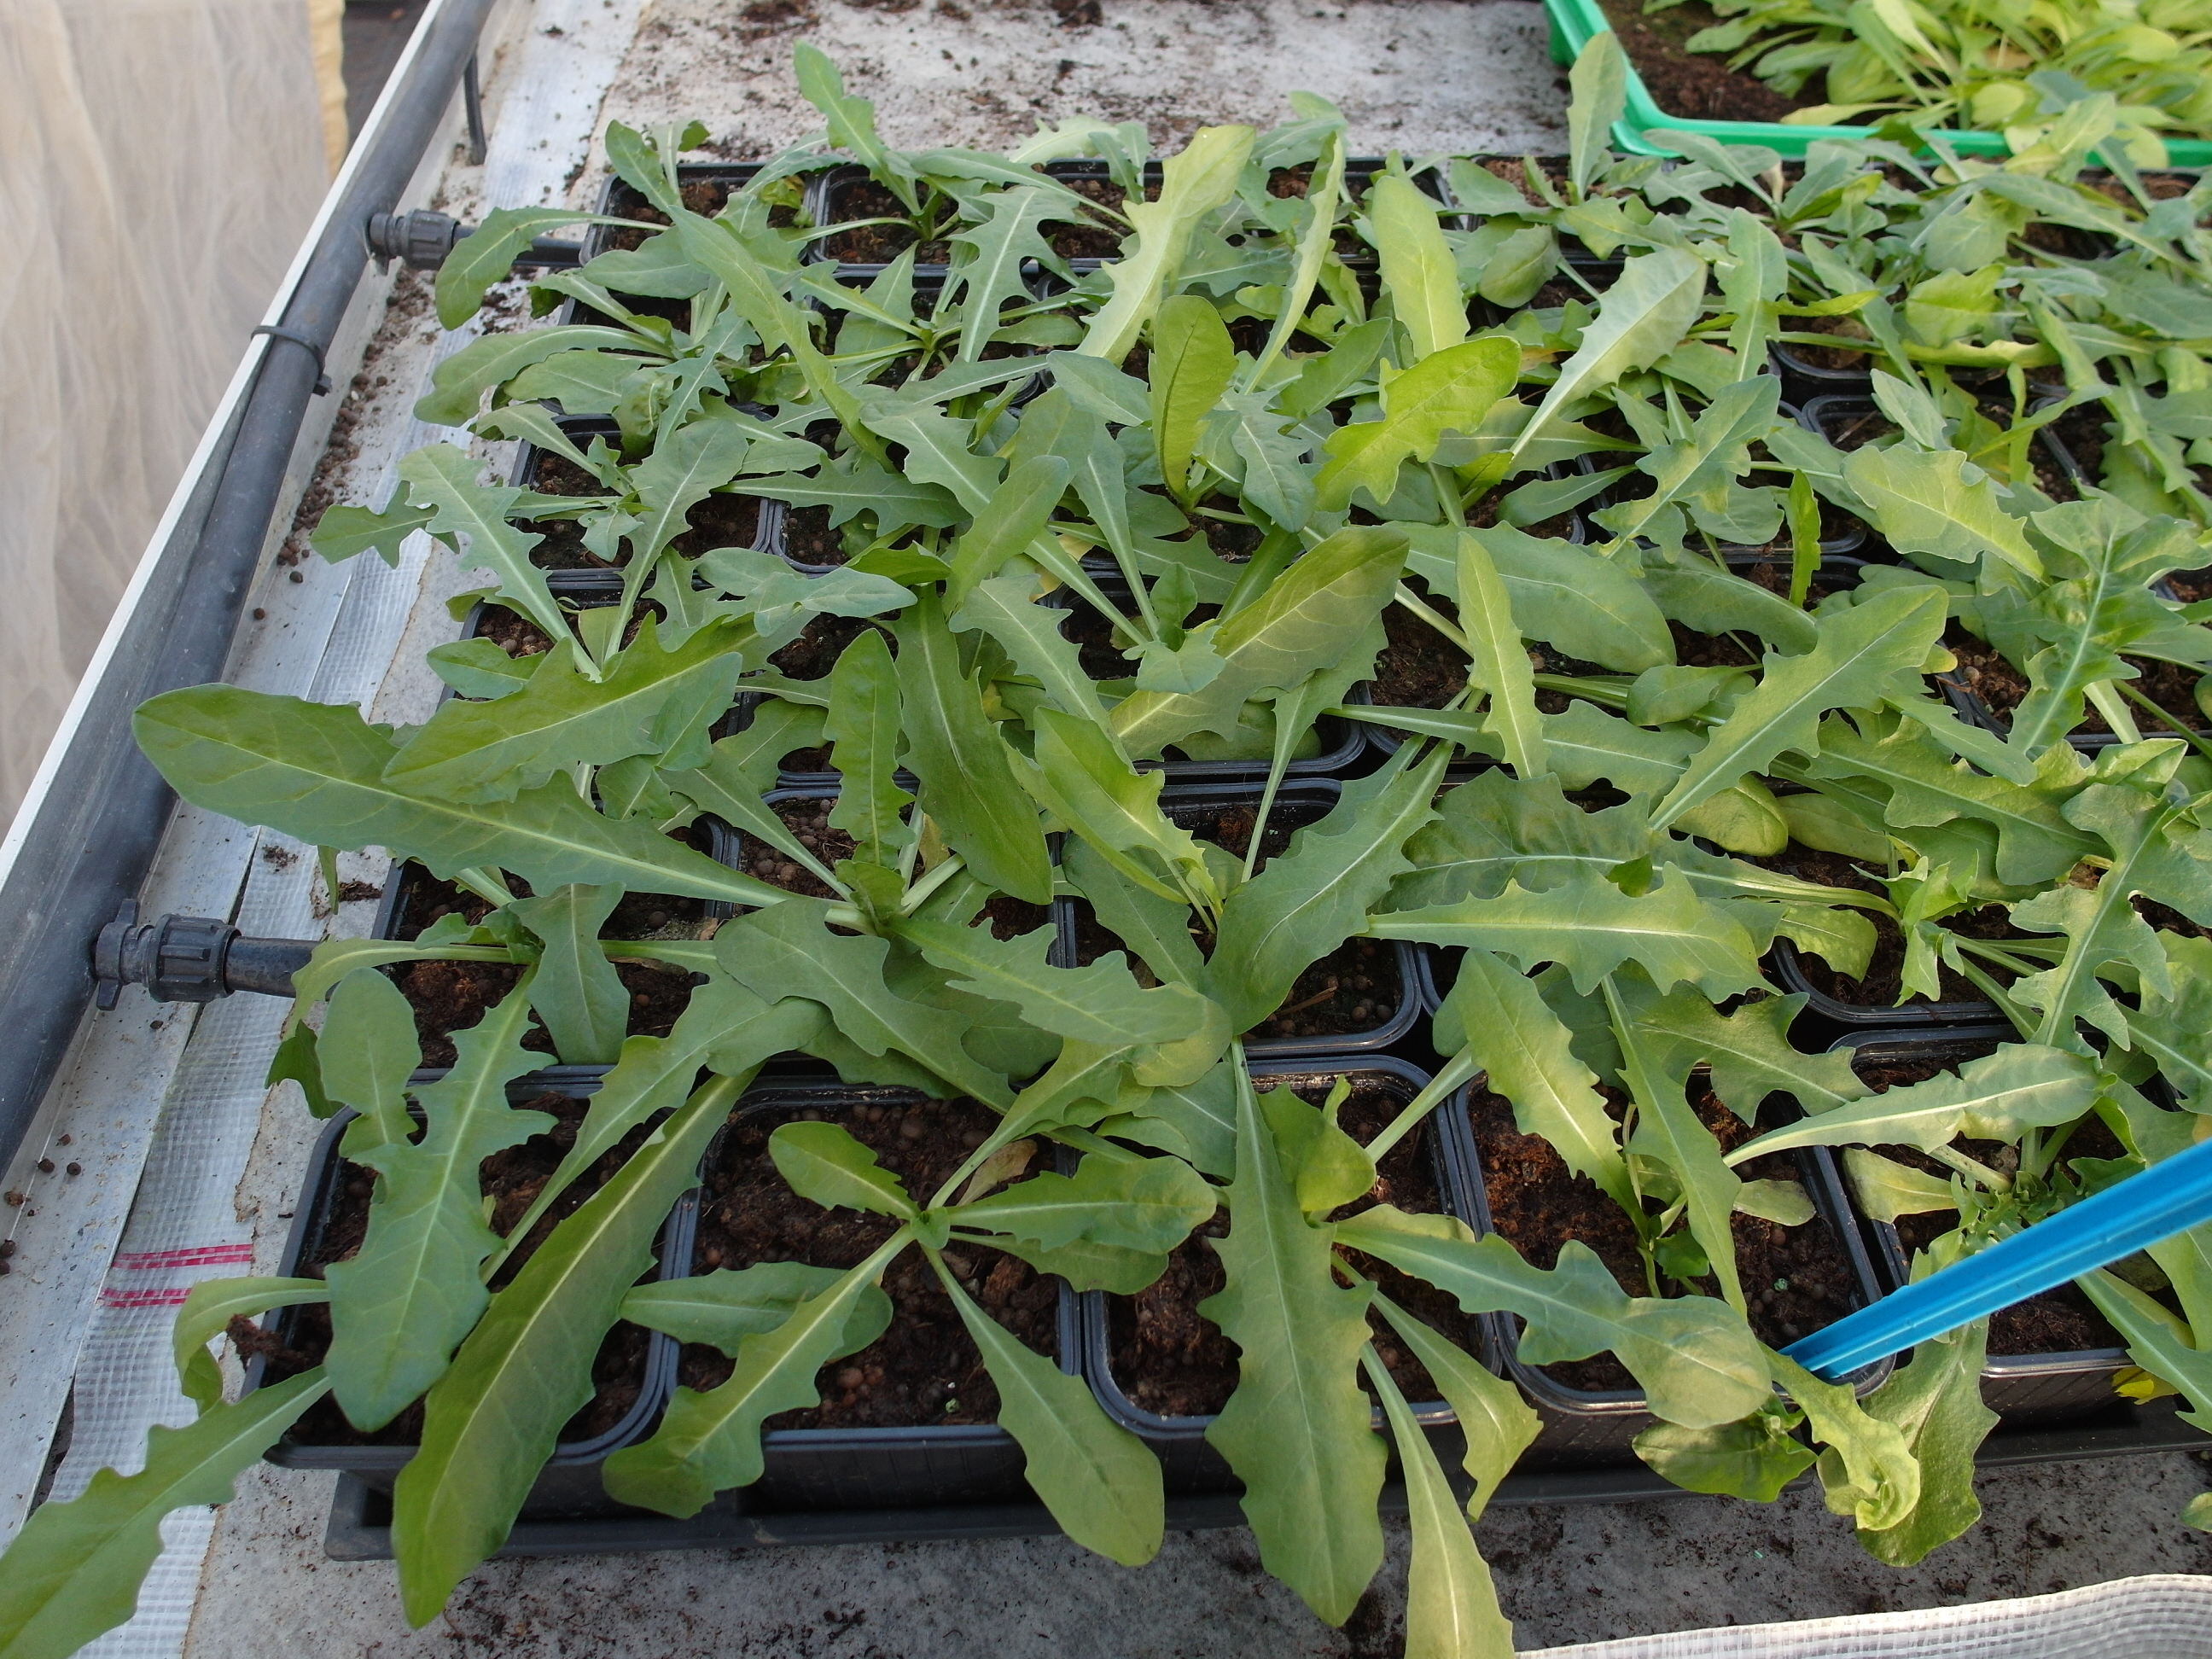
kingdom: Plantae
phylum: Tracheophyta
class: Magnoliopsida
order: Asterales
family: Asteraceae
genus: Cichorium
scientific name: Cichorium intybus
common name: Chicory
